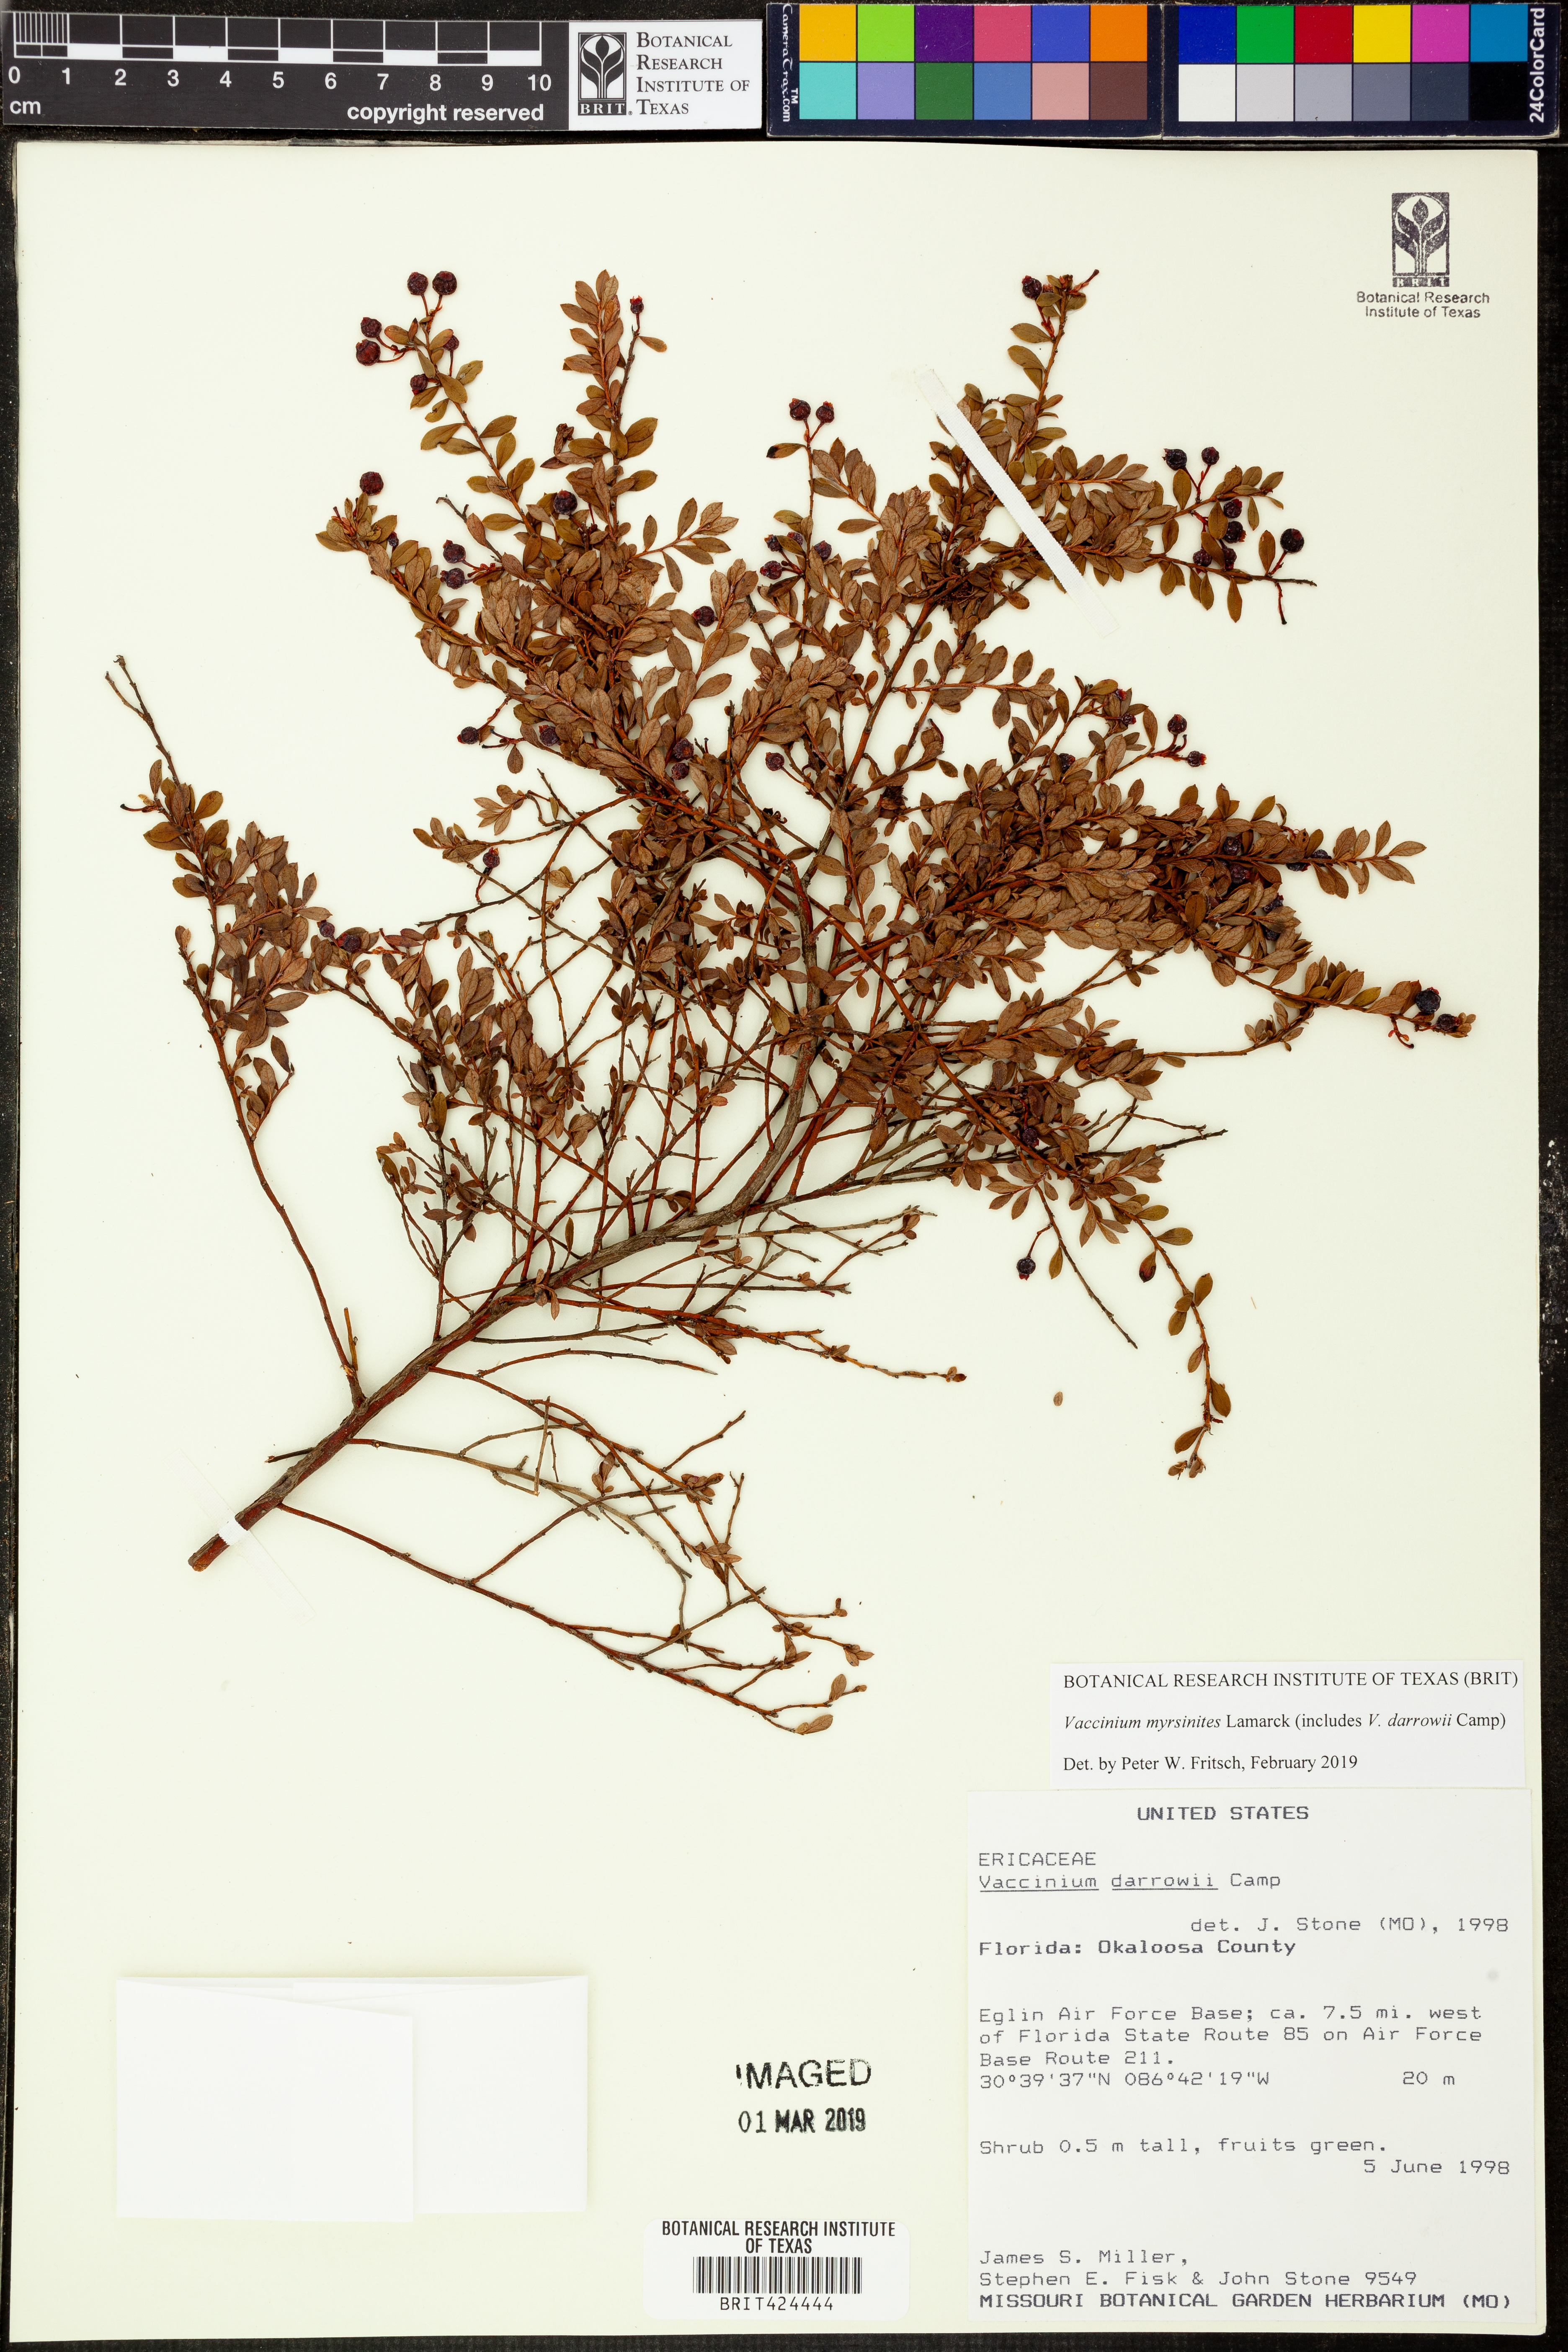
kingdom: Plantae
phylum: Tracheophyta
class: Magnoliopsida
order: Ericales
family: Ericaceae
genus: Vaccinium
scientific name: Vaccinium myrsinites
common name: Evergreen blueberry
